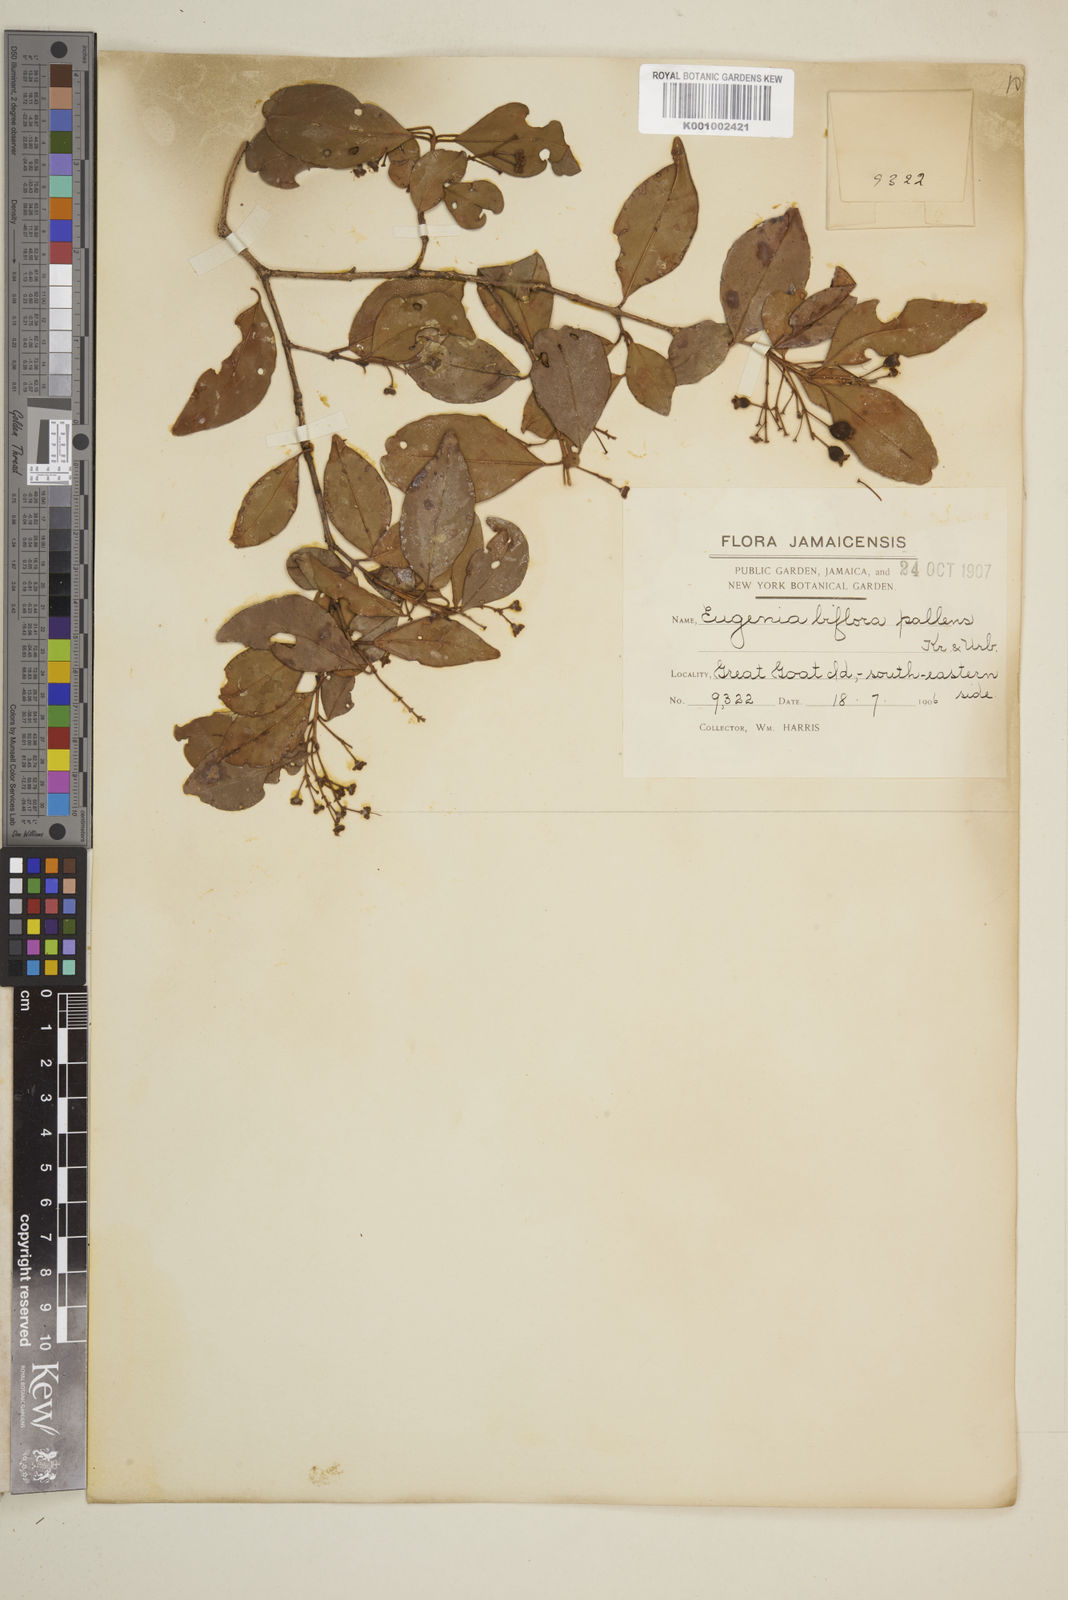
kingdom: Plantae
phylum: Tracheophyta
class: Magnoliopsida
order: Myrtales
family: Myrtaceae
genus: Eugenia
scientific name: Eugenia biflora
